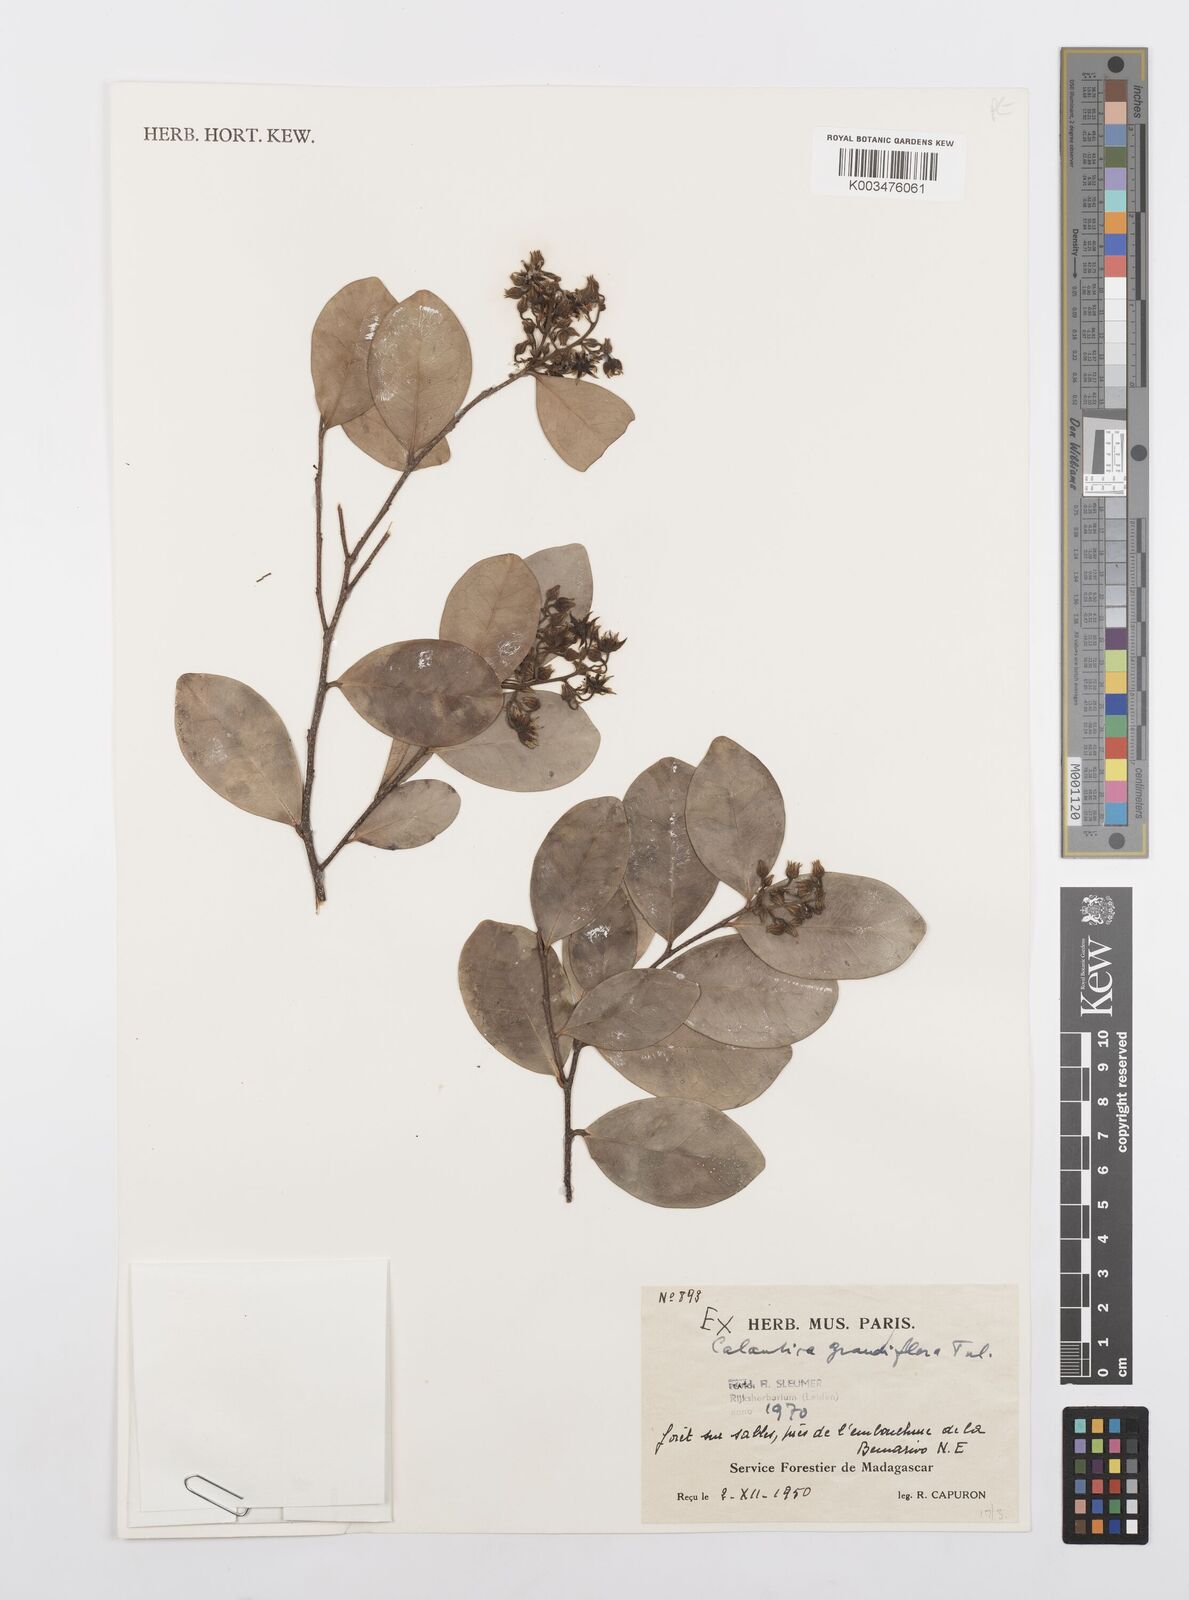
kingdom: Plantae
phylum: Tracheophyta
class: Magnoliopsida
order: Malpighiales
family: Salicaceae
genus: Calantica
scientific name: Calantica grandiflora
